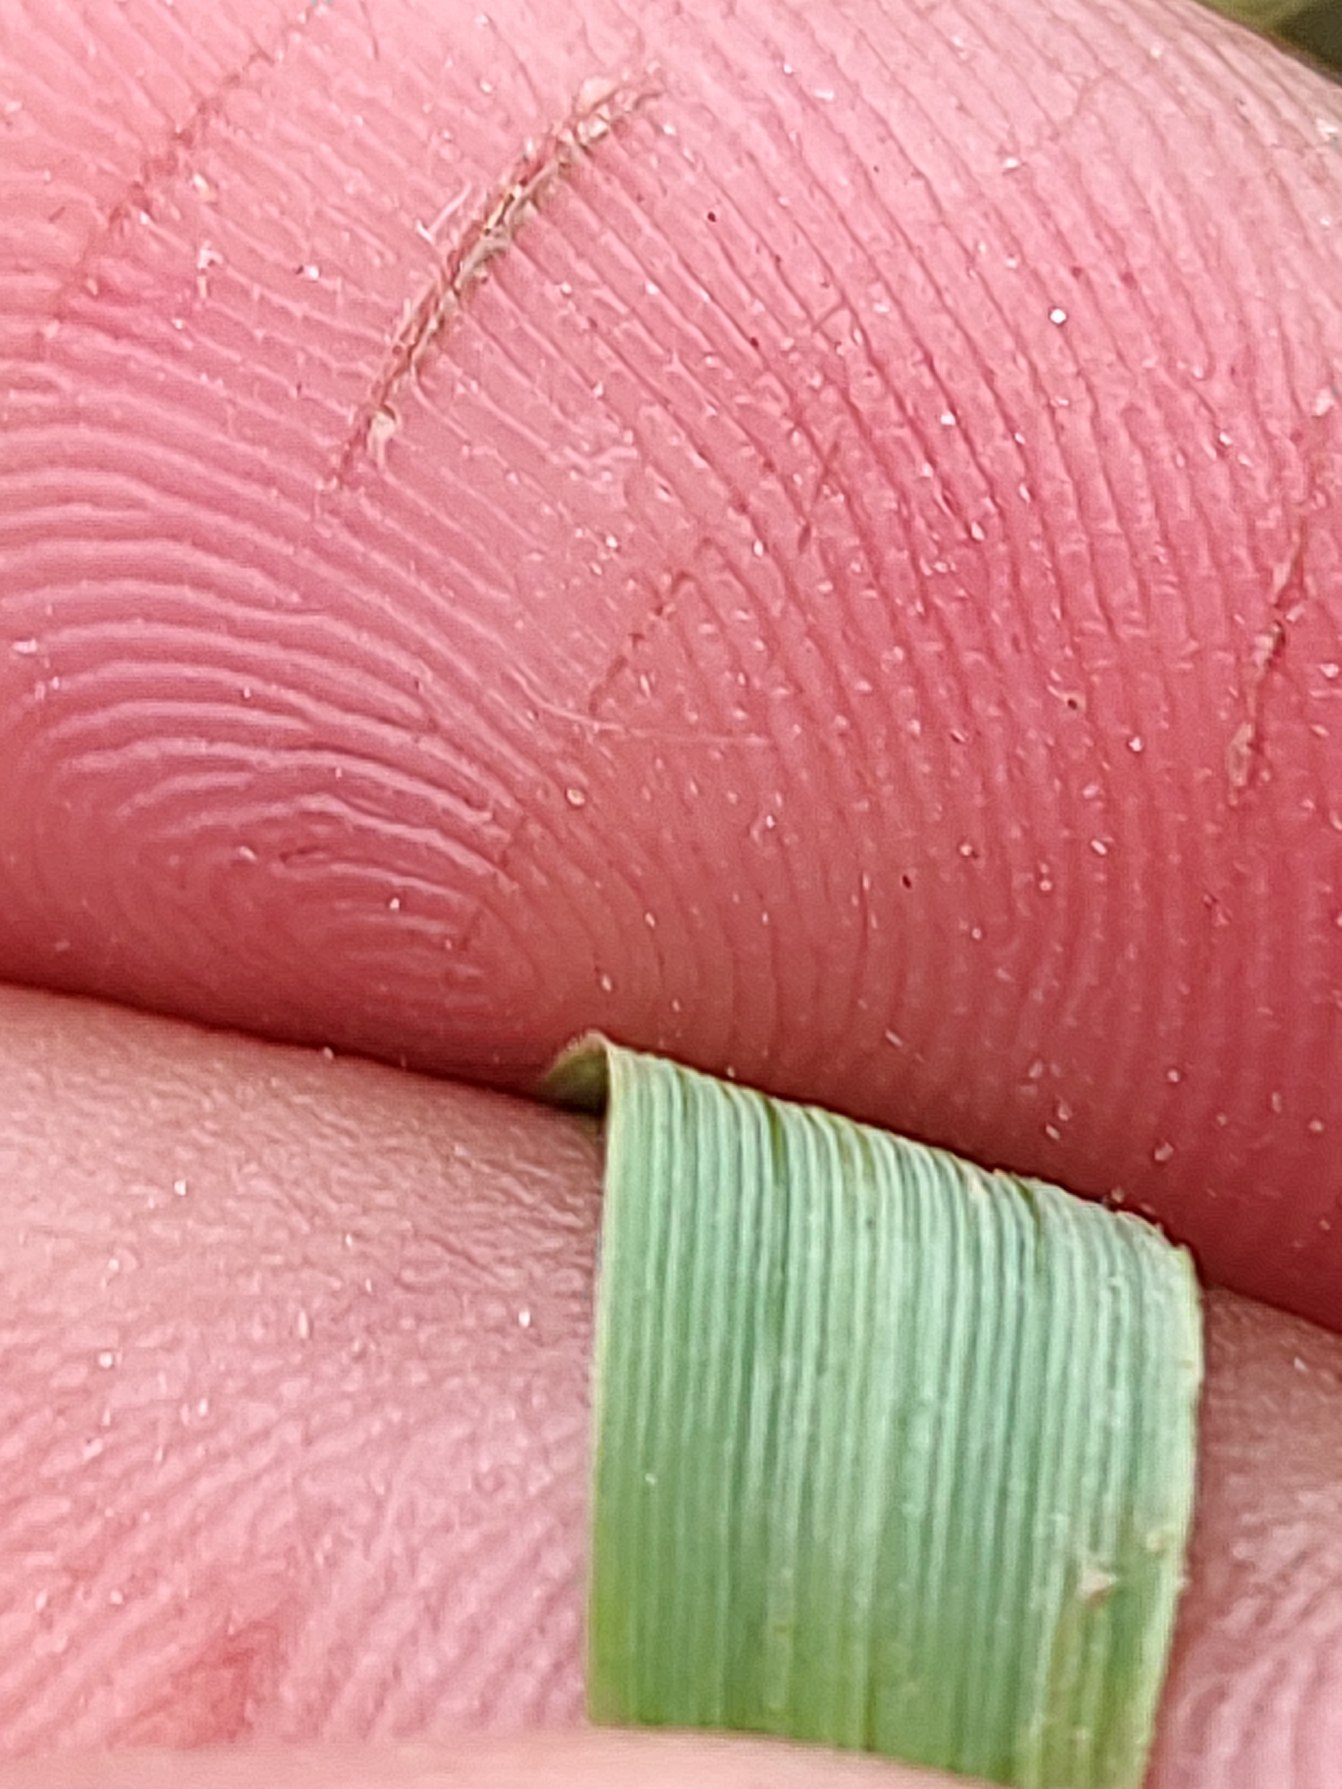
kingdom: Plantae
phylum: Tracheophyta
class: Liliopsida
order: Poales
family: Poaceae
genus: Calamagrostis
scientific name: Calamagrostis epigejos
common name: Bjerg-rørhvene
